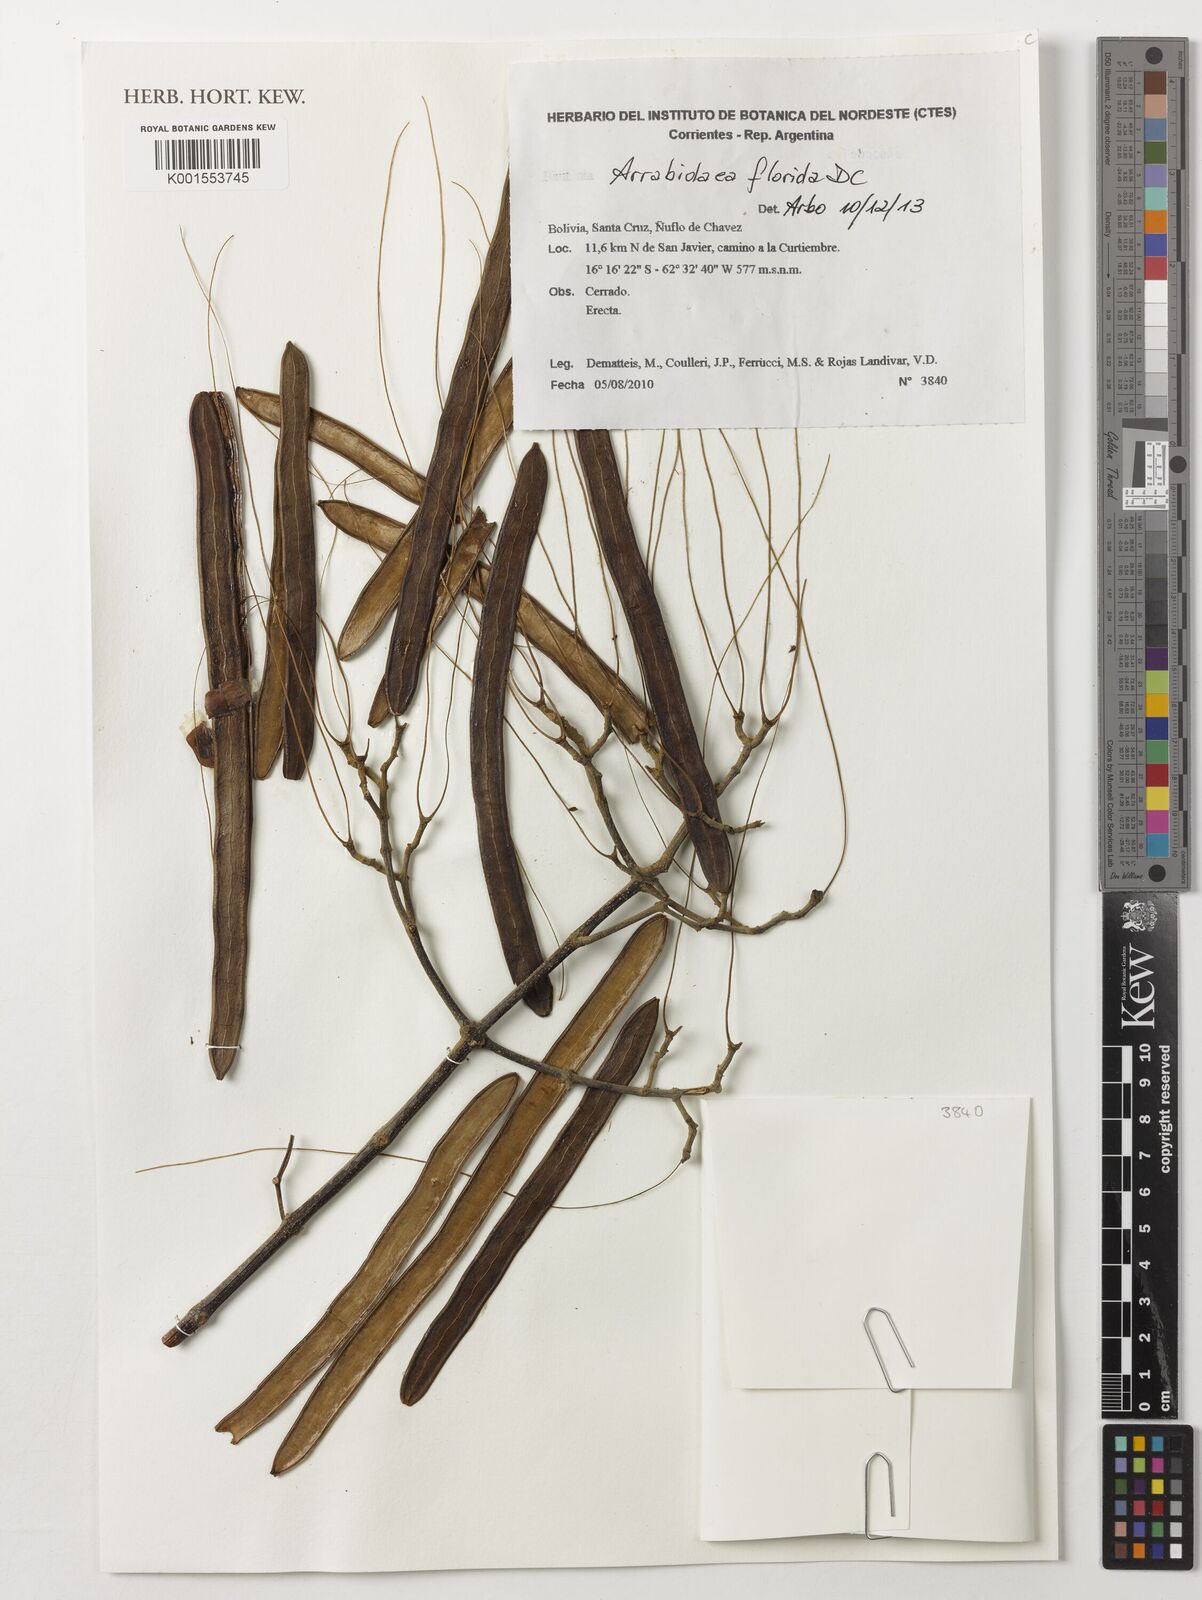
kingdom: Plantae
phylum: Tracheophyta
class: Magnoliopsida
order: Lamiales
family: Bignoniaceae
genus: Fridericia
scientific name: Fridericia florida
